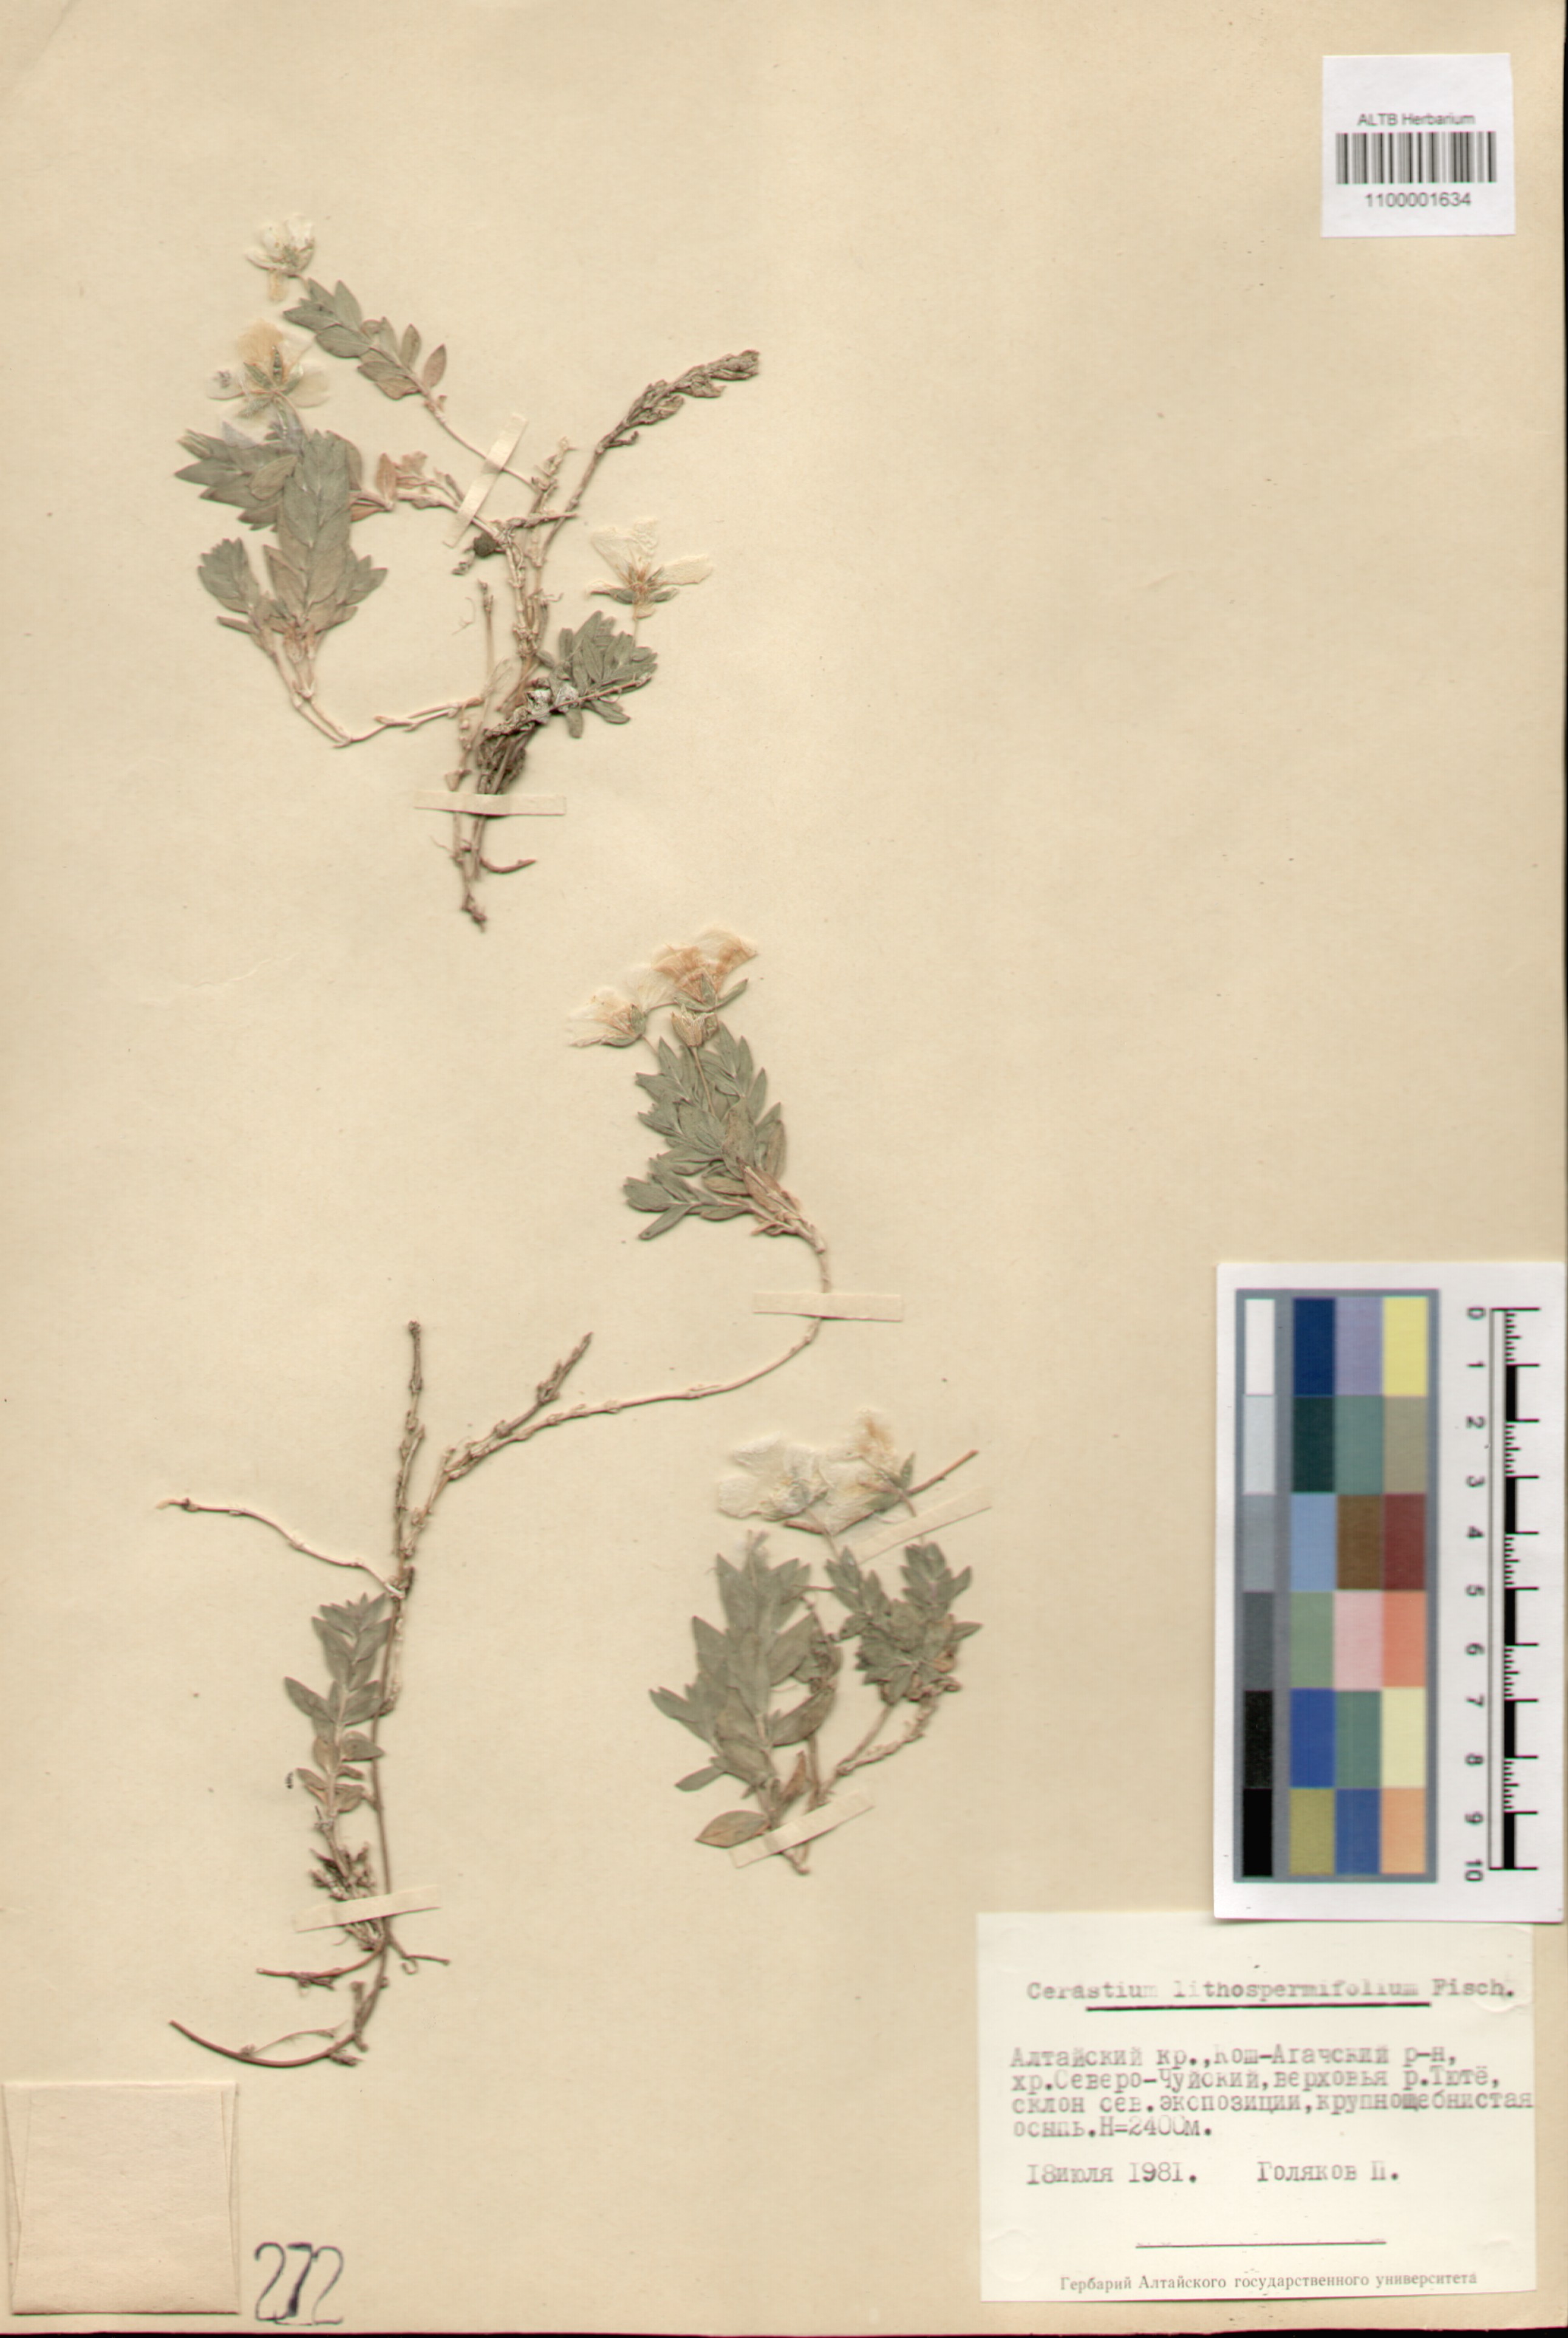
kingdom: Plantae
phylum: Tracheophyta
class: Magnoliopsida
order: Caryophyllales
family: Caryophyllaceae
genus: Cerastium
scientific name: Cerastium lithospermifolium
